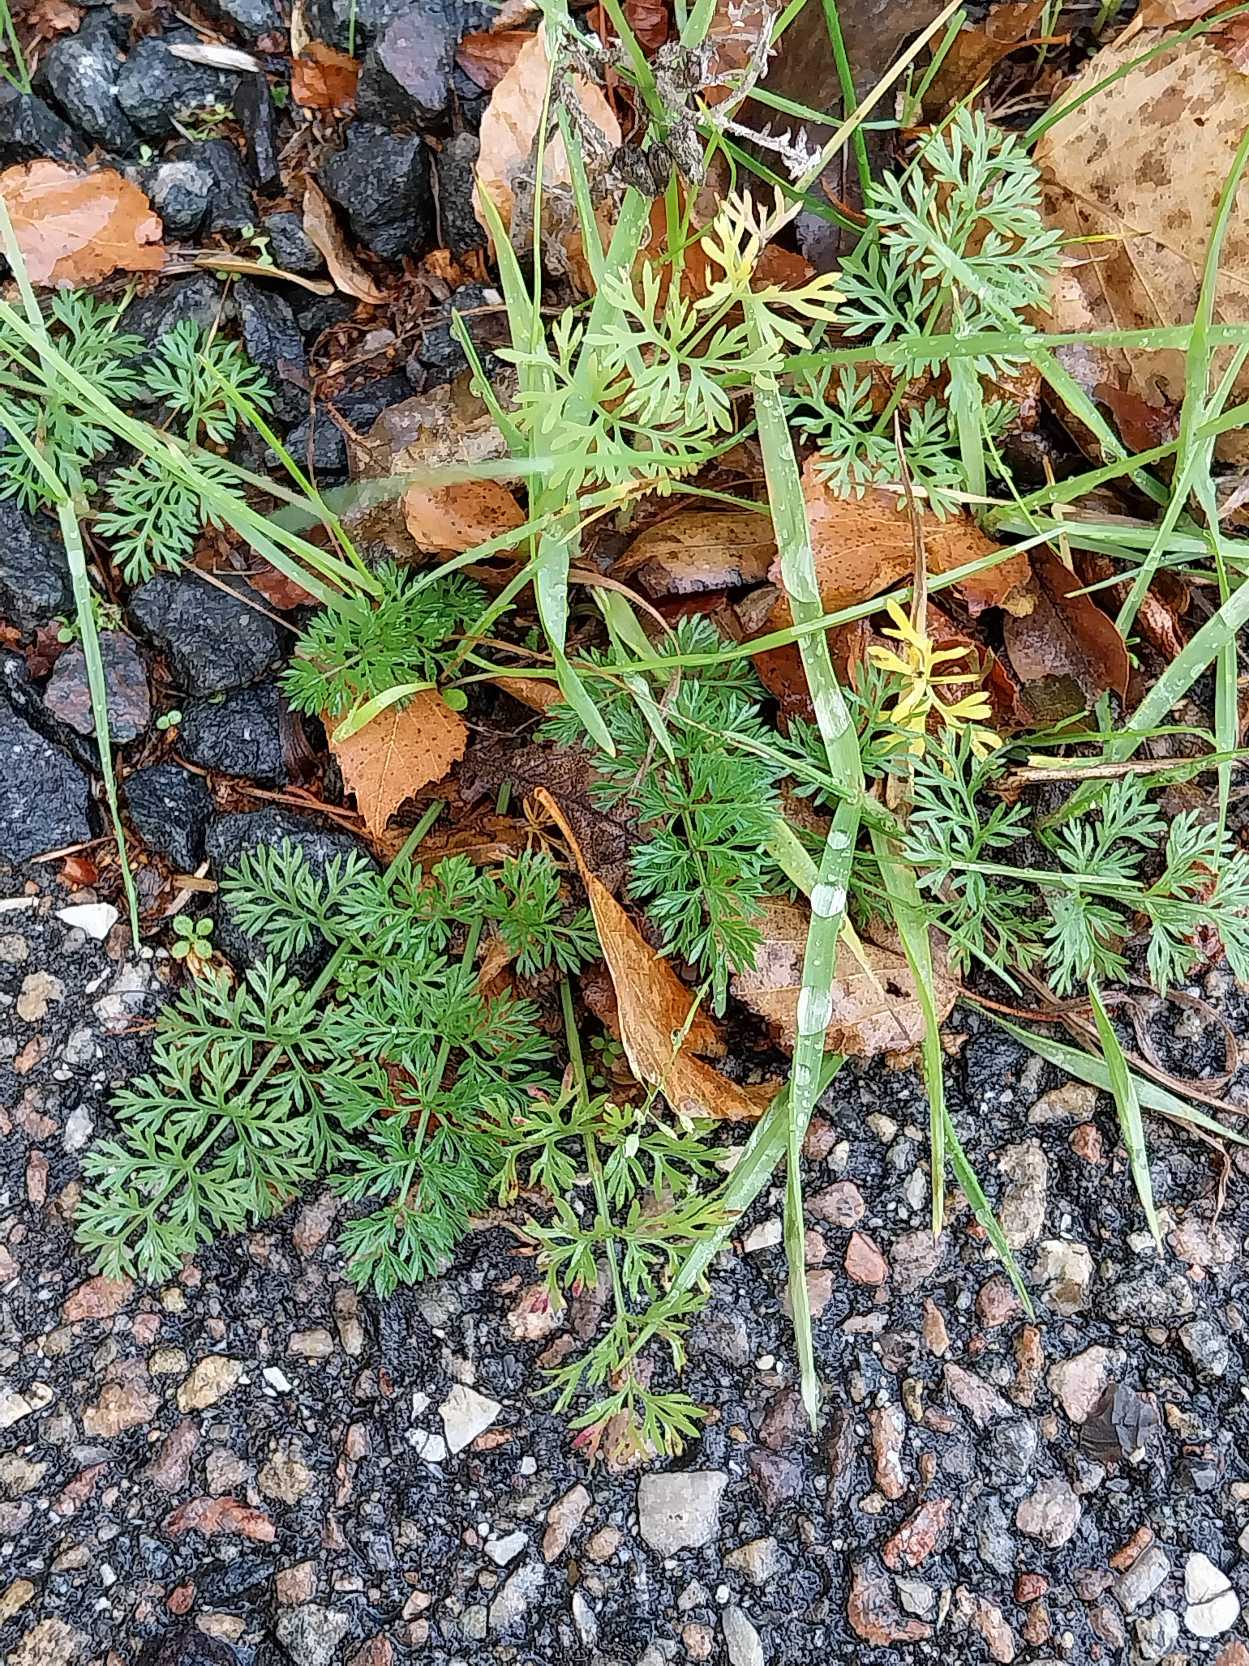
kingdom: Plantae
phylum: Tracheophyta
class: Magnoliopsida
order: Apiales
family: Apiaceae
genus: Daucus
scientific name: Daucus carota
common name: Gulerod
